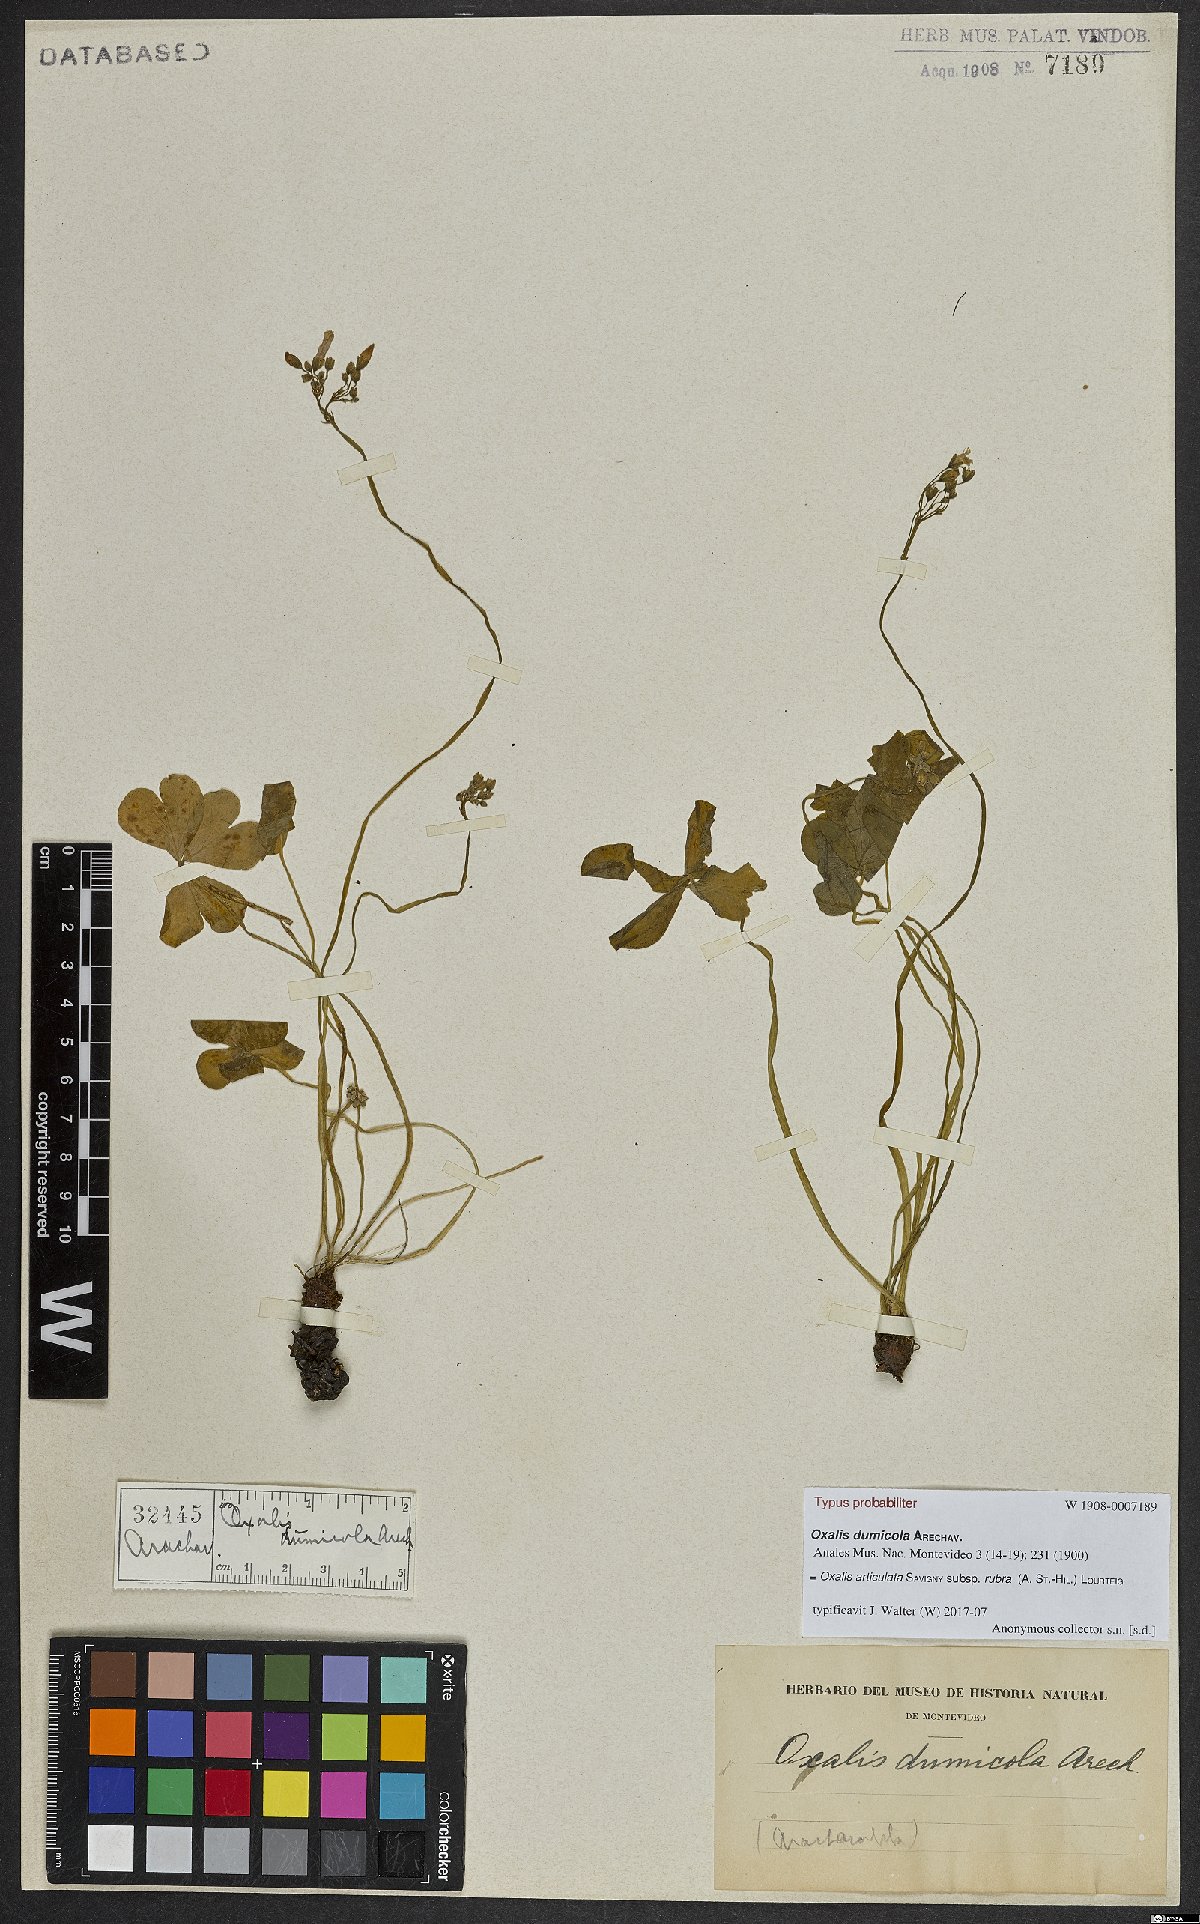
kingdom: Plantae
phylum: Tracheophyta
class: Magnoliopsida
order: Oxalidales
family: Oxalidaceae
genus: Oxalis
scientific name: Oxalis articulata
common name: Pink-sorrel
